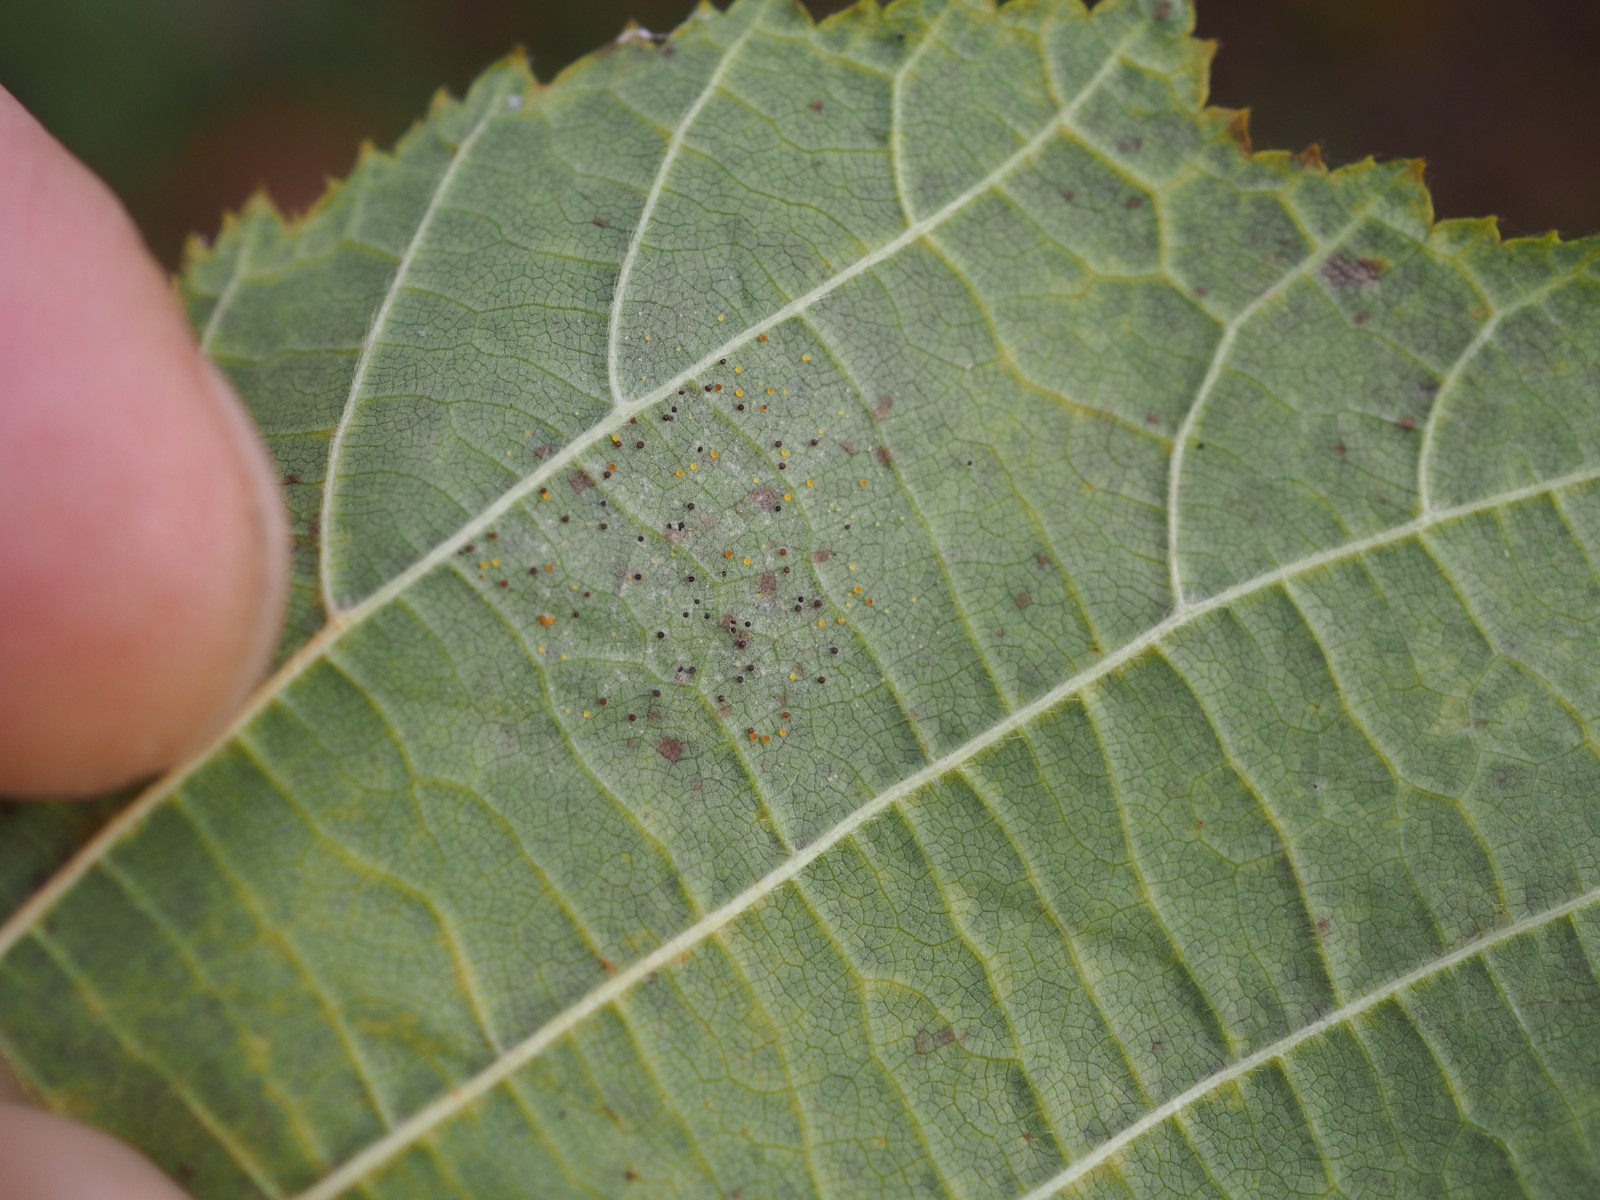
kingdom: Fungi
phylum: Ascomycota
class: Leotiomycetes
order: Helotiales
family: Erysiphaceae
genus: Phyllactinia
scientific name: Phyllactinia guttata
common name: hassel-meldug
